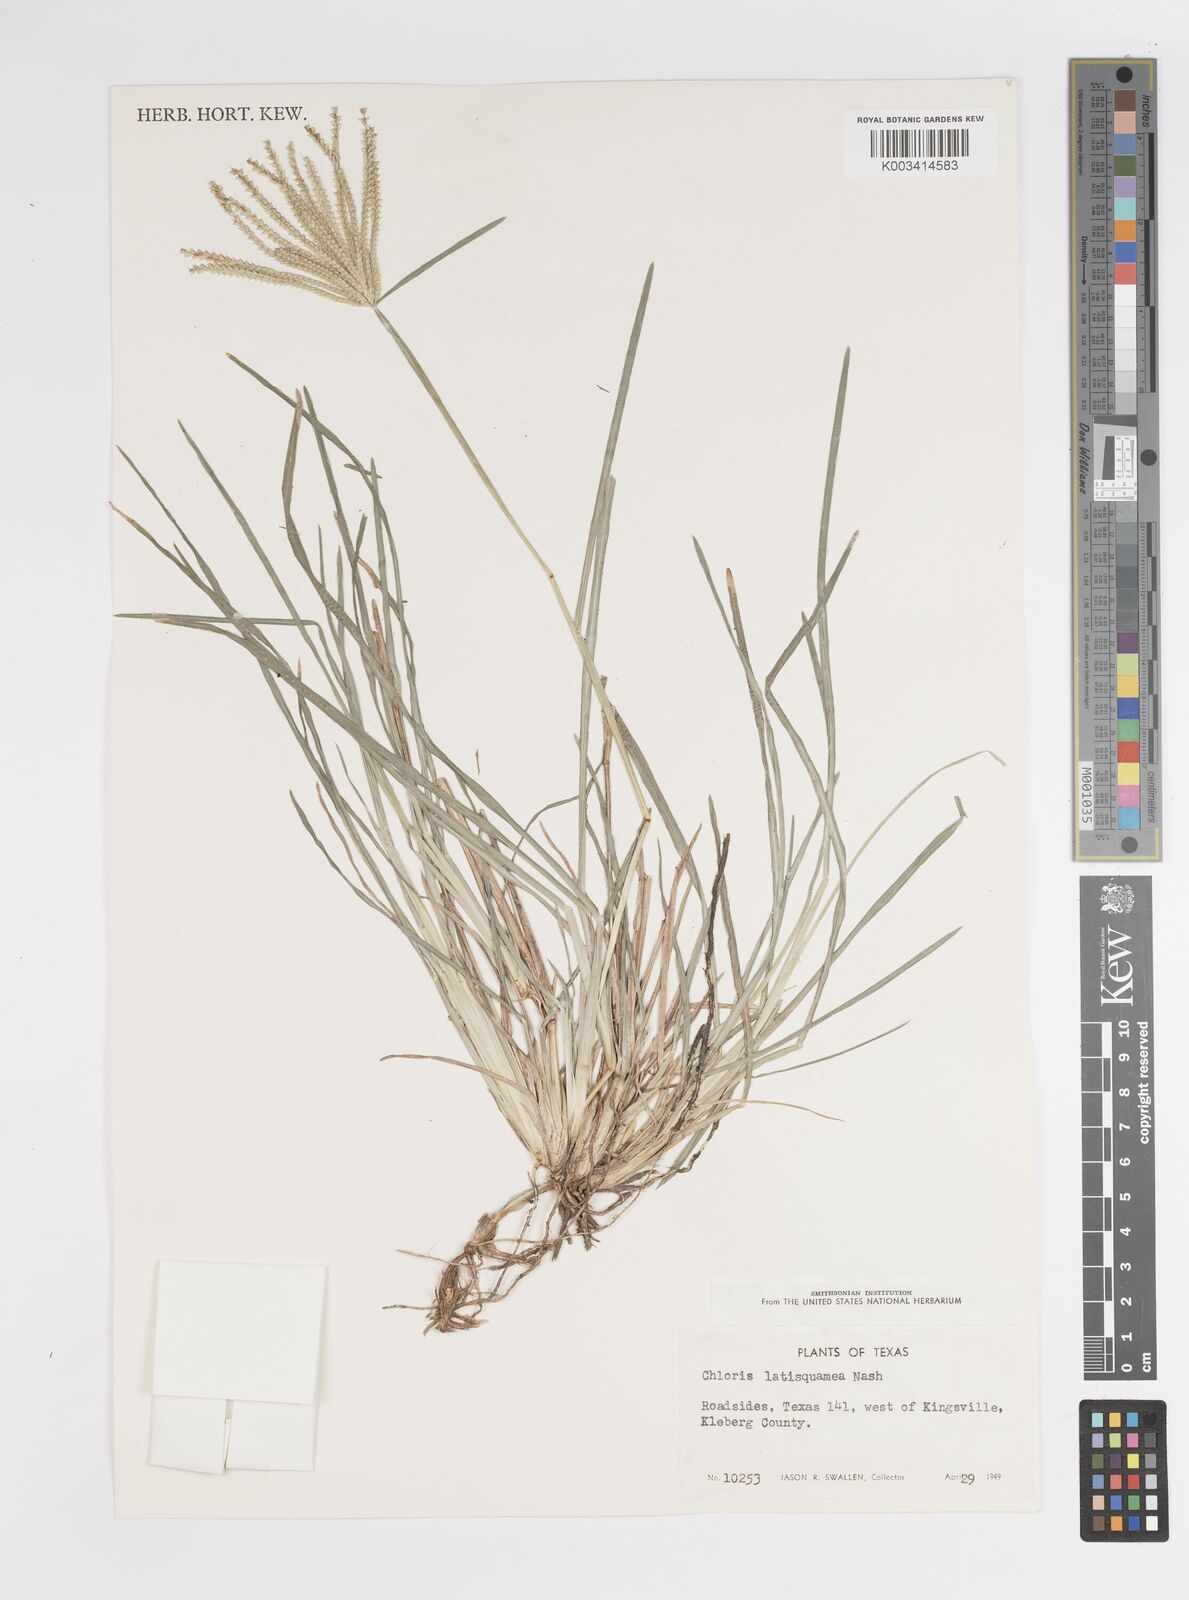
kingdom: Plantae
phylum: Tracheophyta
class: Liliopsida
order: Poales
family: Poaceae
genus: Chloris
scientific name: Chloris subdolichostachya
